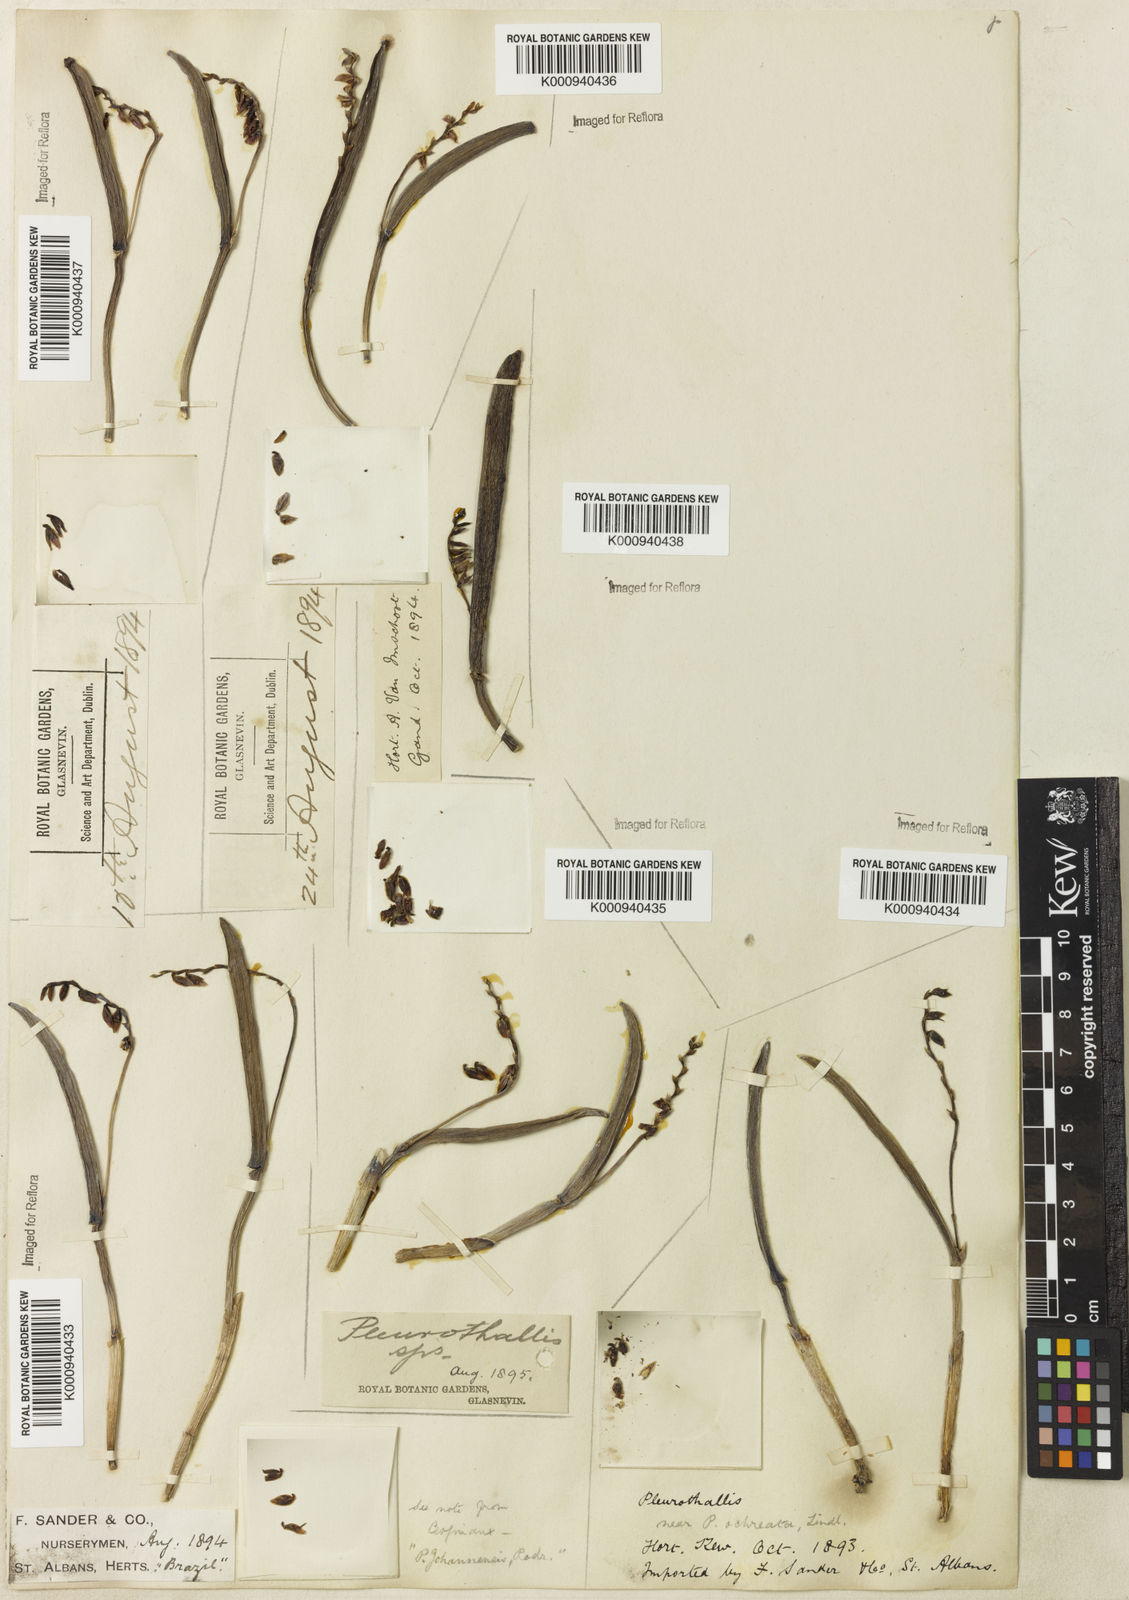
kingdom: Plantae
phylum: Tracheophyta
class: Liliopsida
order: Asparagales
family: Orchidaceae
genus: Acianthera
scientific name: Acianthera johannensis
